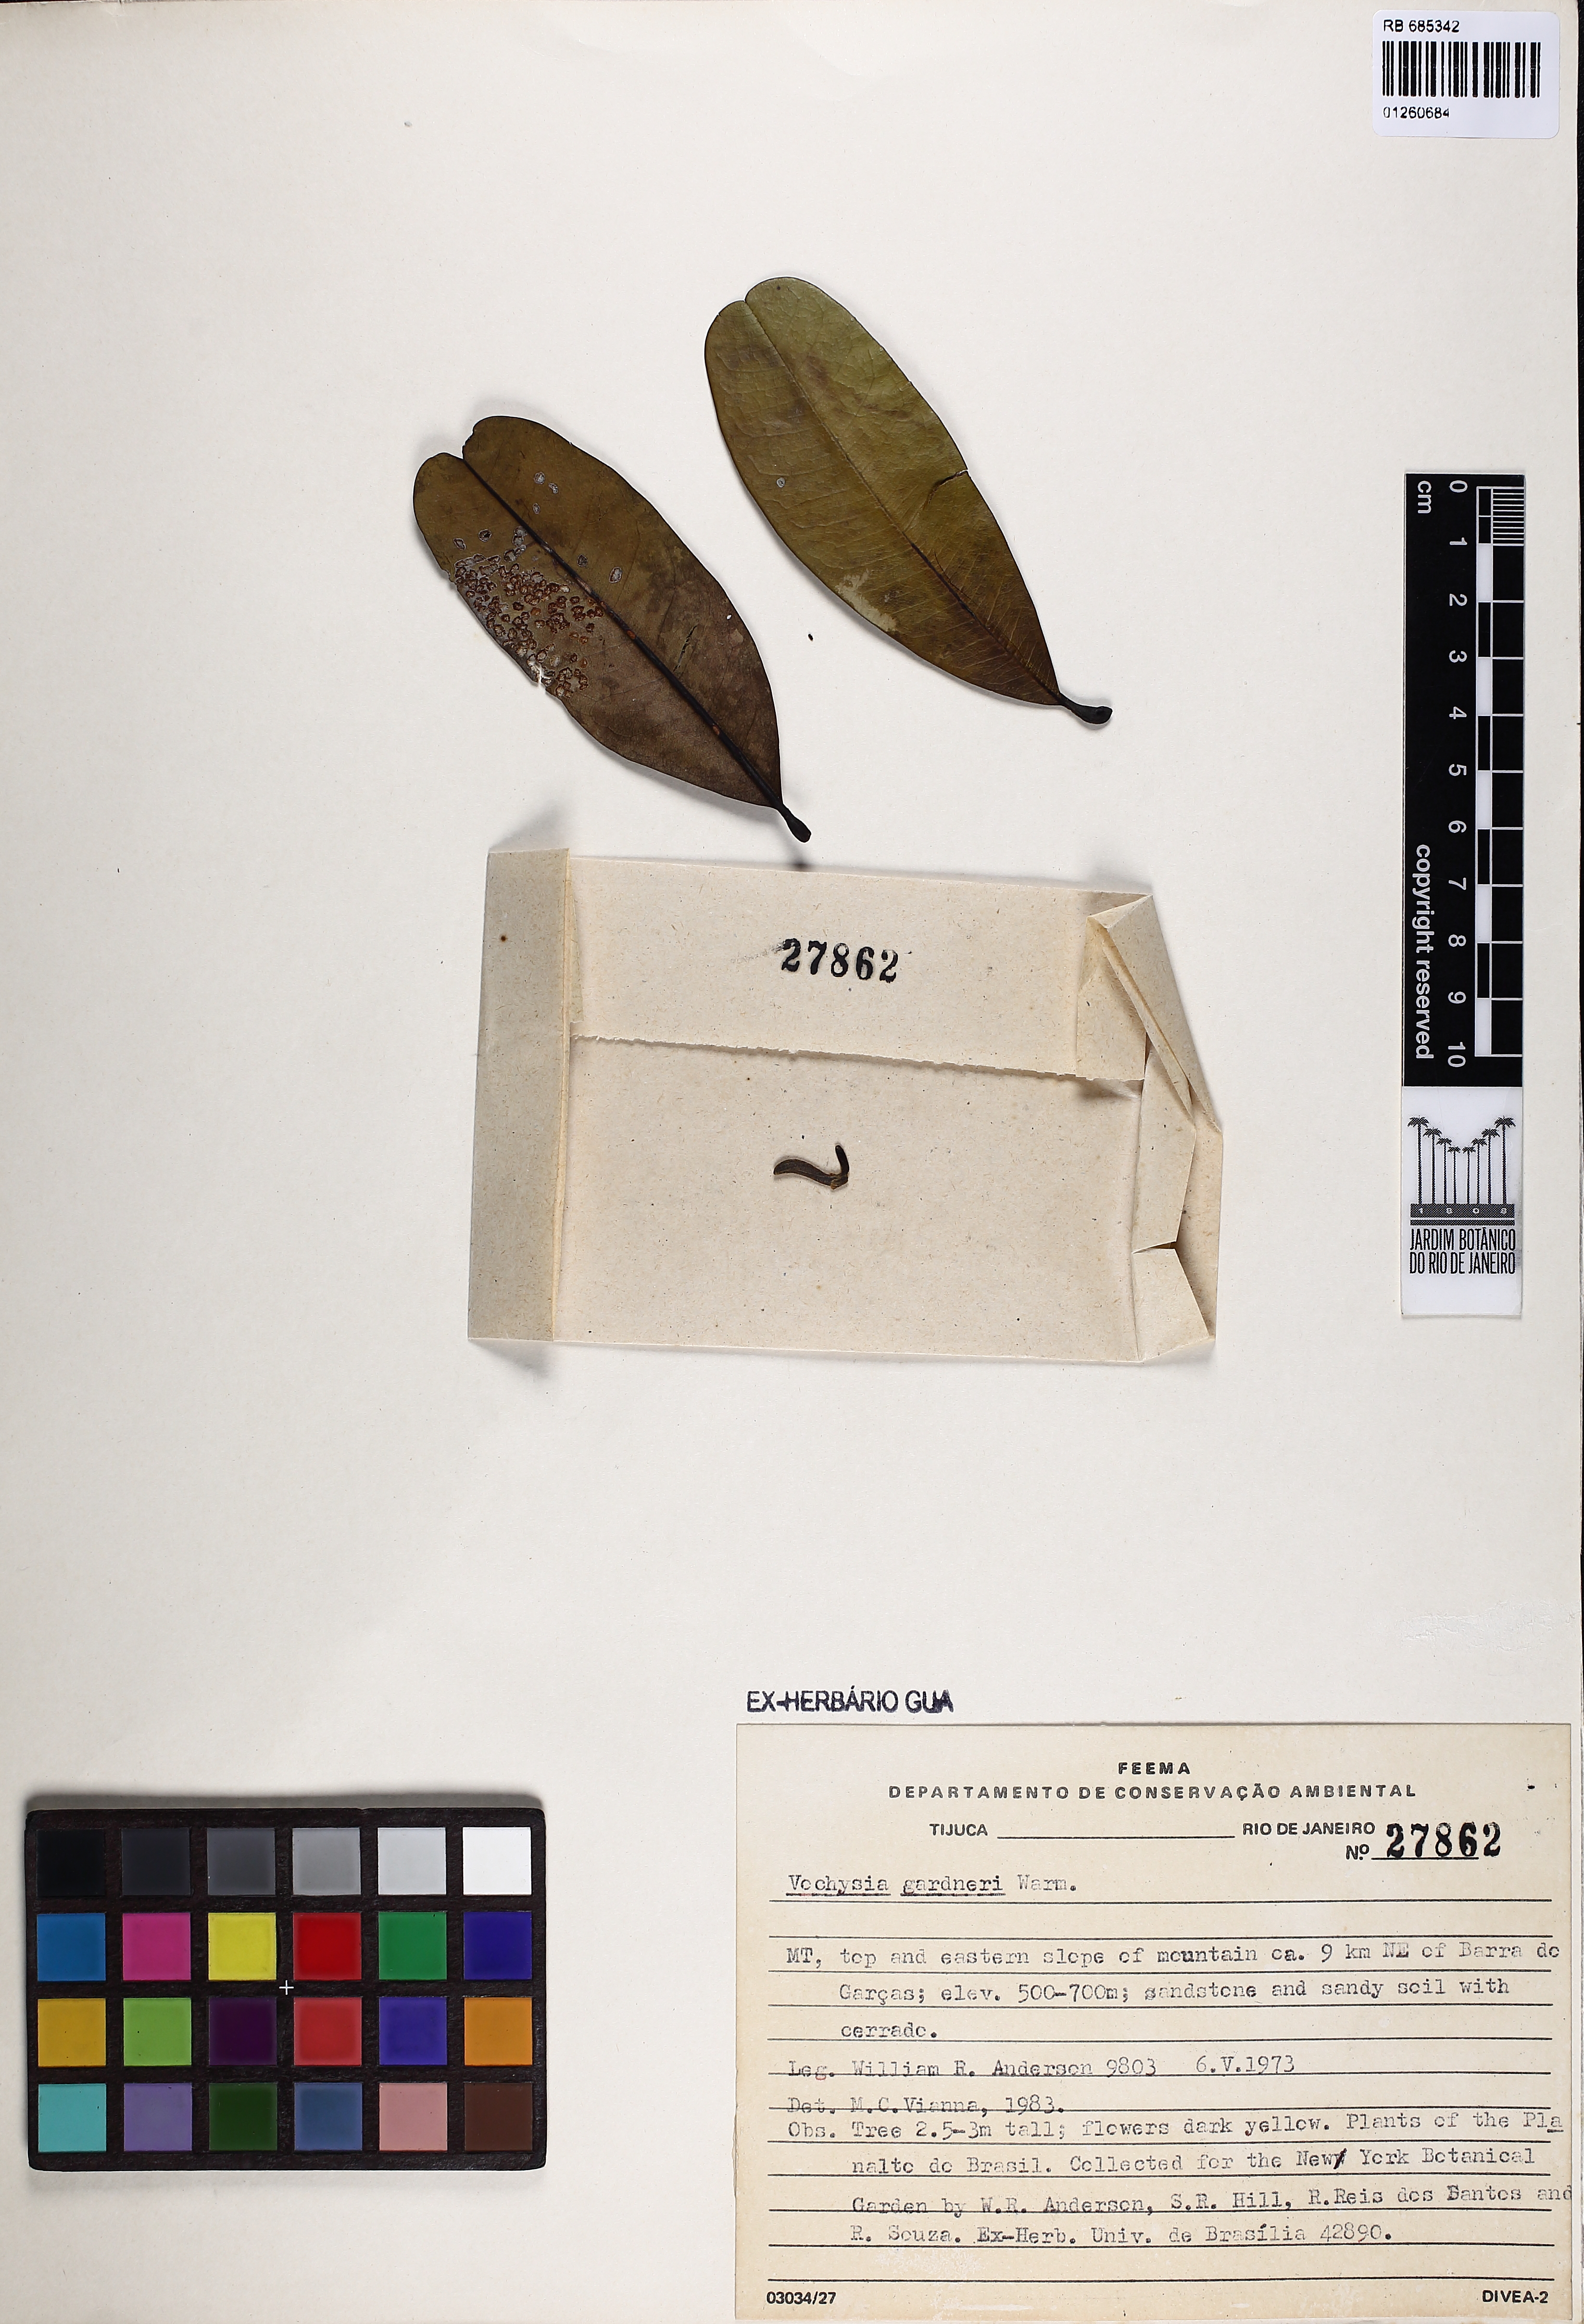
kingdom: Plantae
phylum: Tracheophyta
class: Magnoliopsida
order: Myrtales
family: Vochysiaceae
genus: Vochysia
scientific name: Vochysia gardneri
